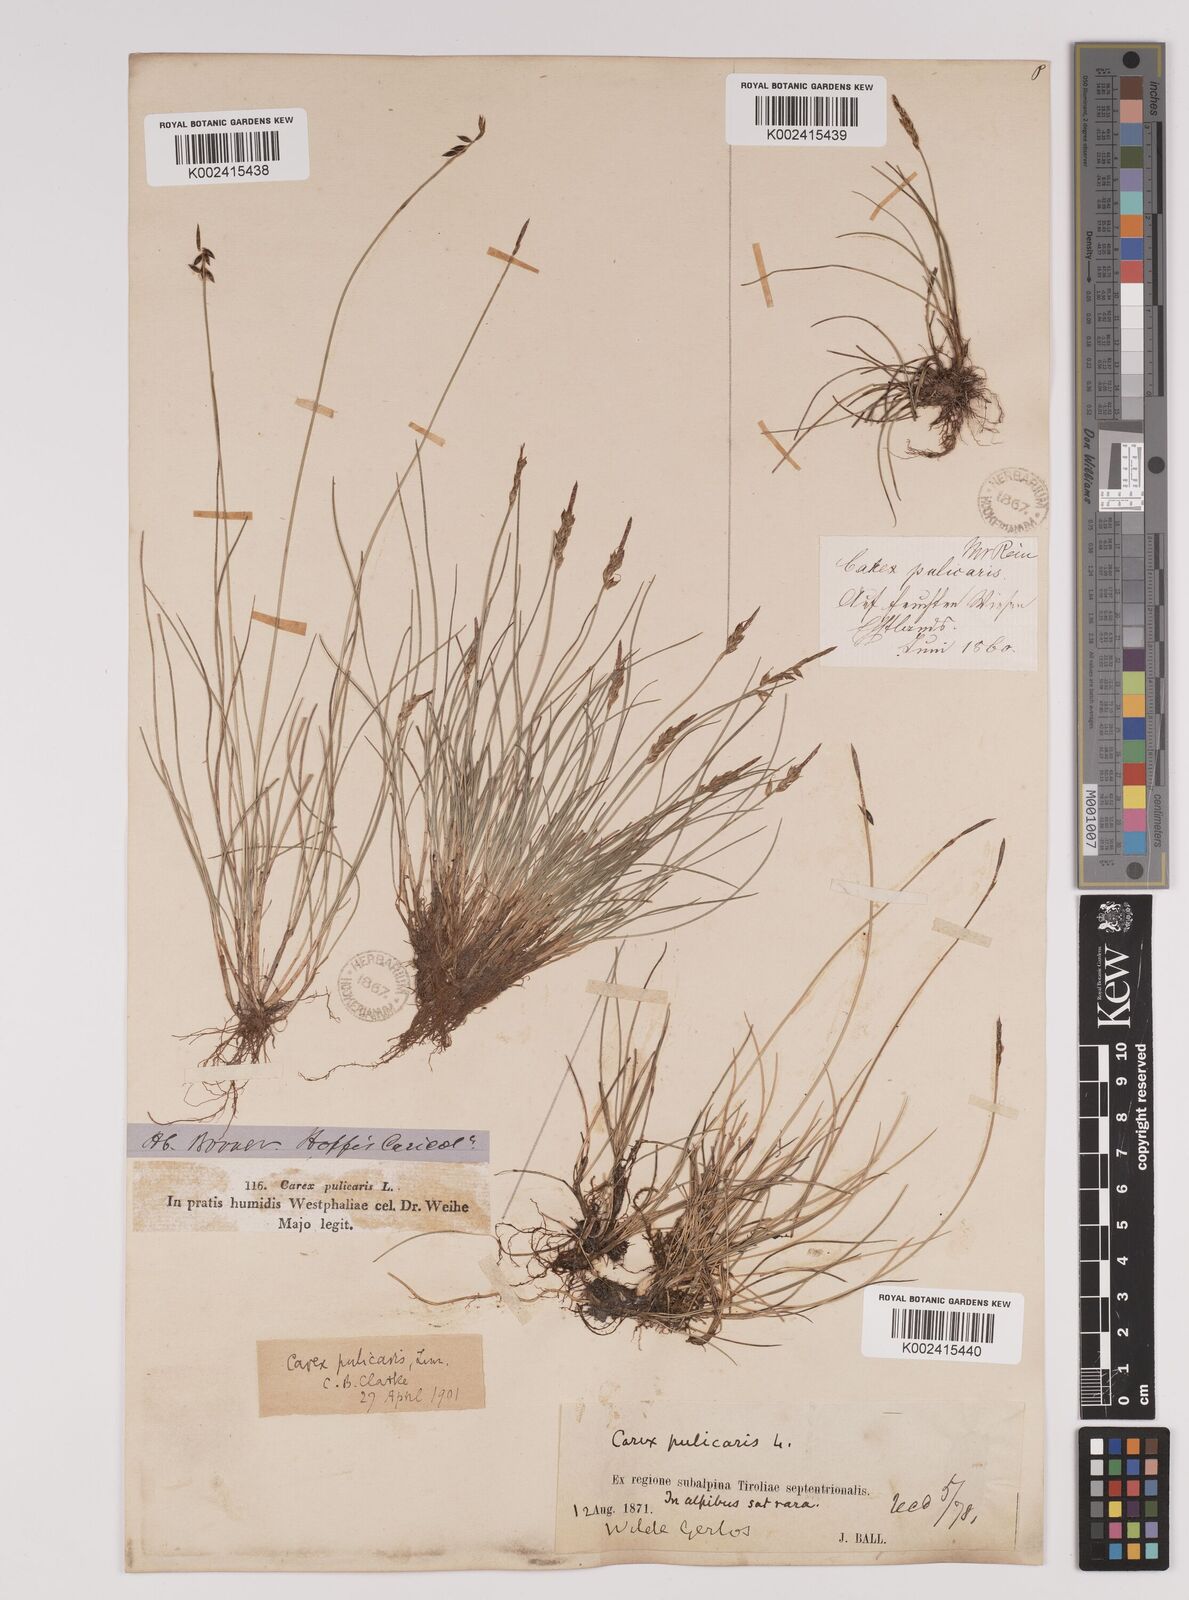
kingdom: Plantae
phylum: Tracheophyta
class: Liliopsida
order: Poales
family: Cyperaceae
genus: Carex
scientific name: Carex pulicaris
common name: Flea sedge
